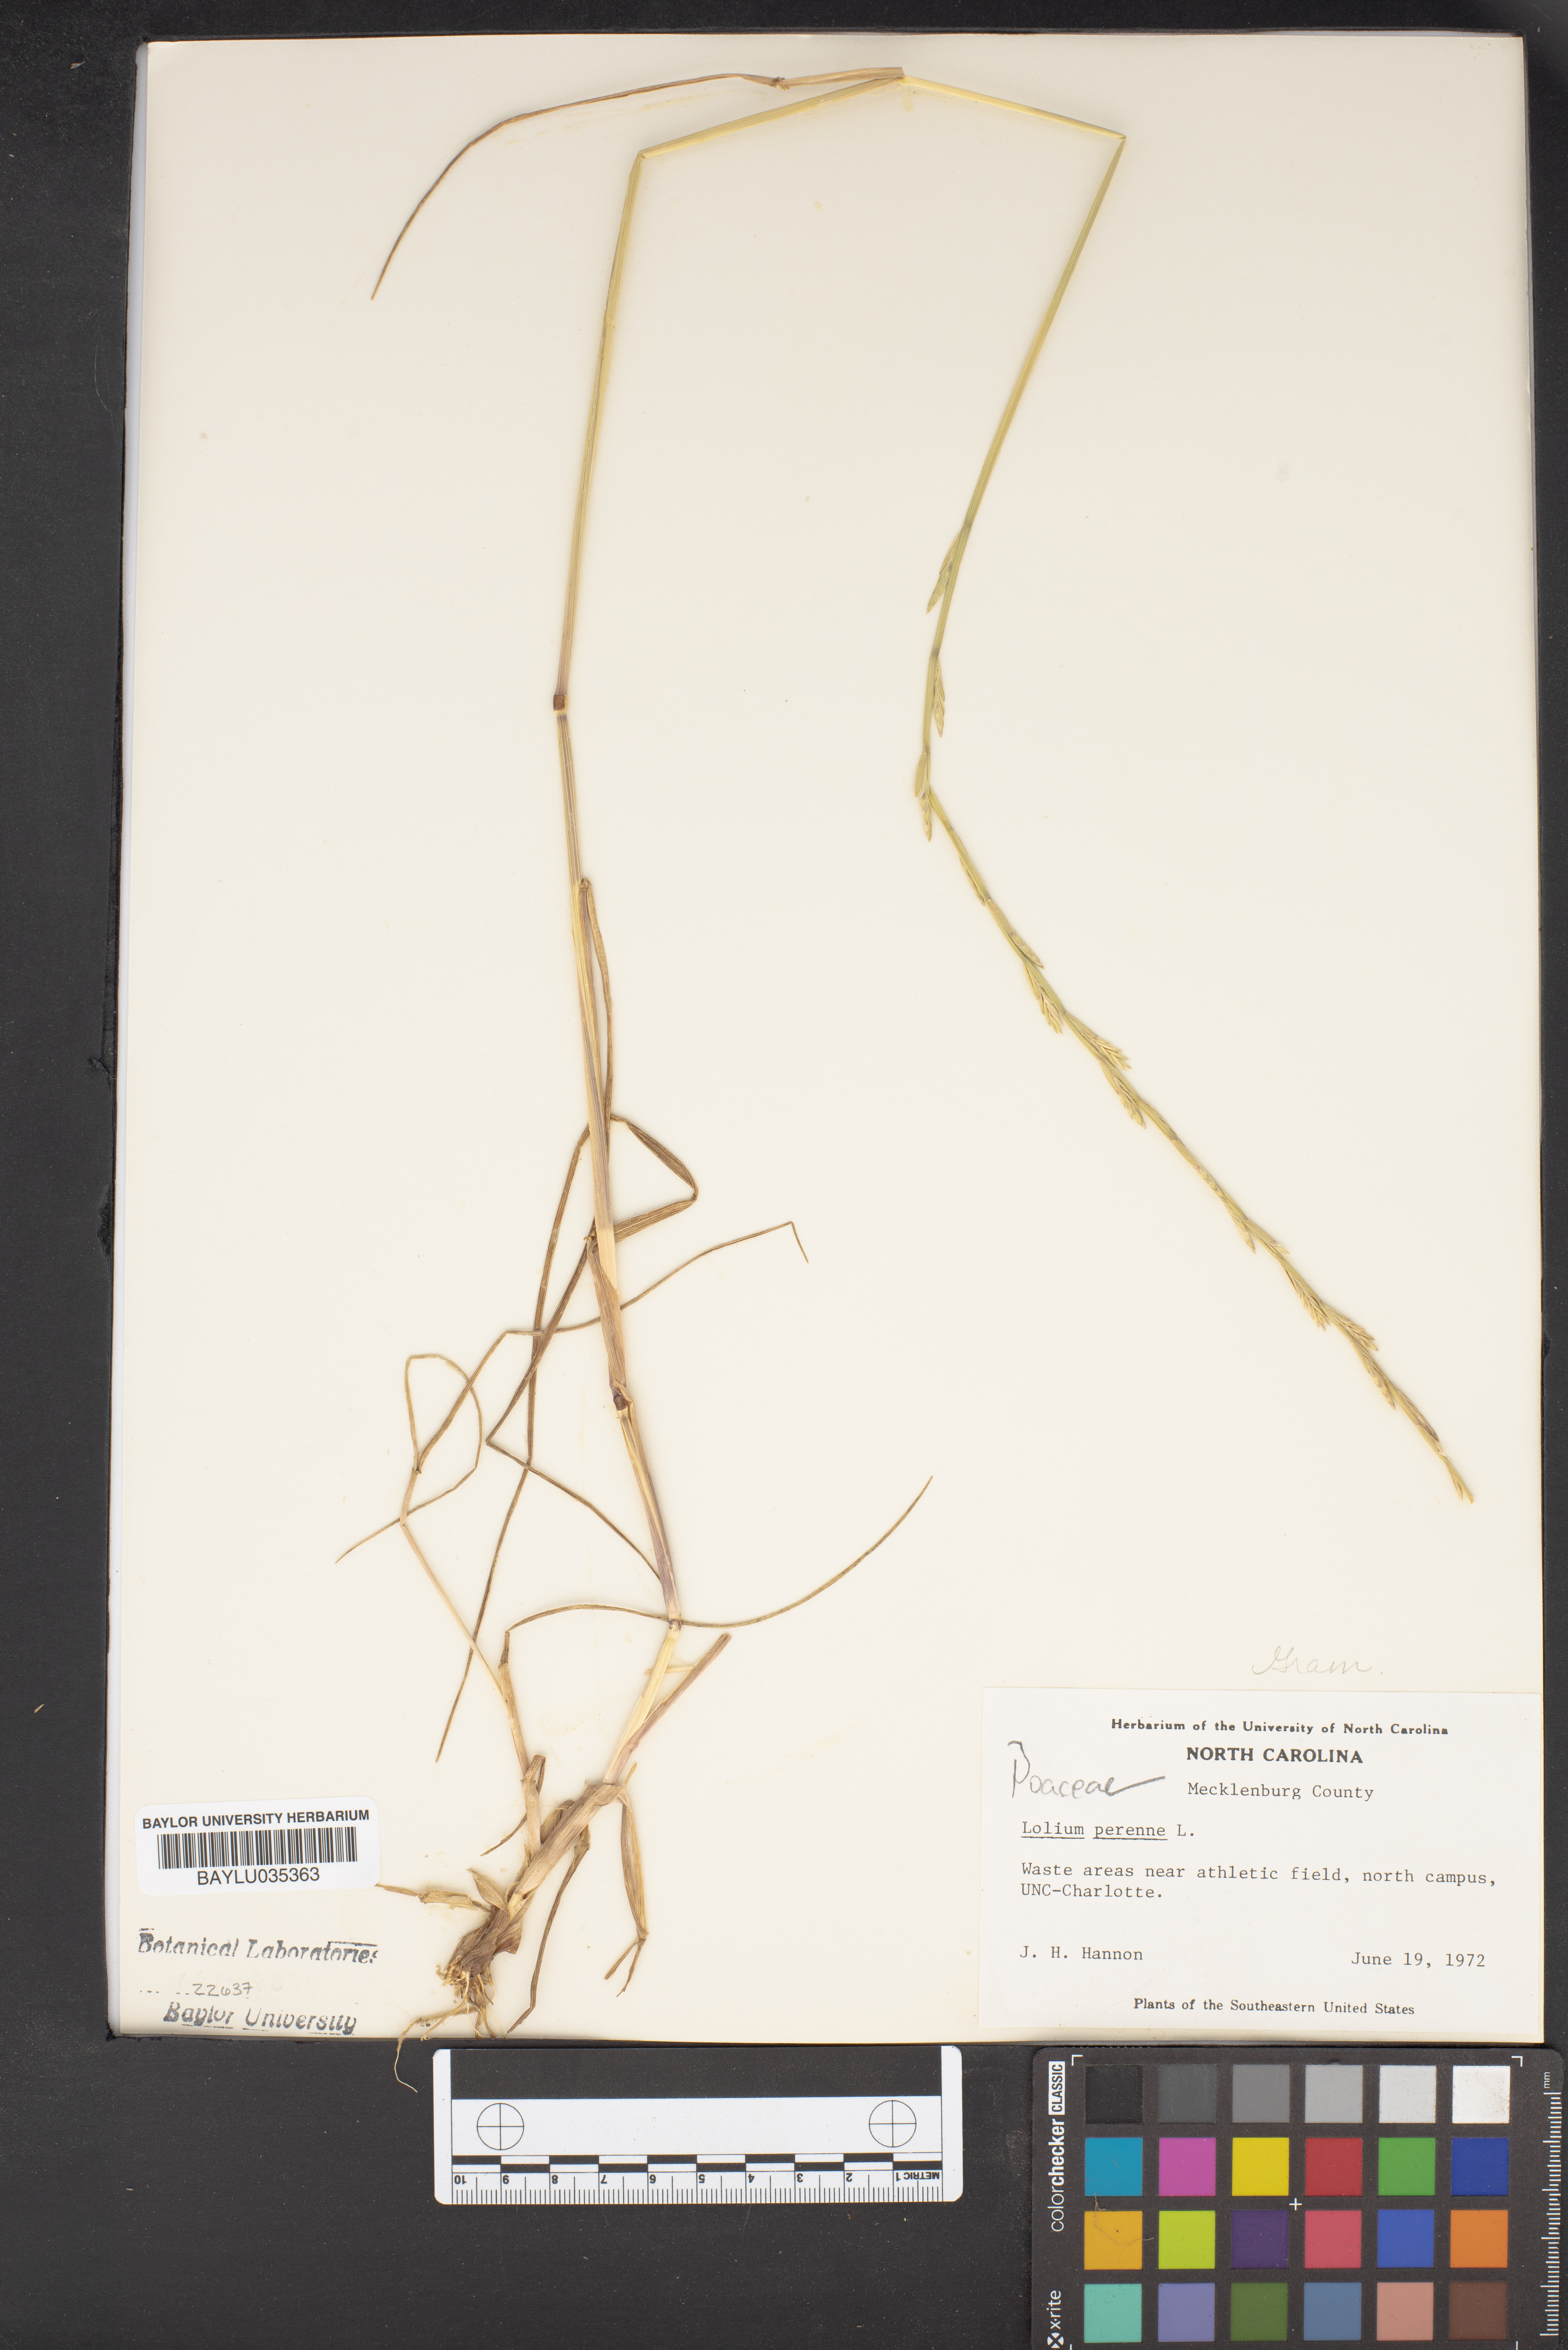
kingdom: Plantae
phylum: Tracheophyta
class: Liliopsida
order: Poales
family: Poaceae
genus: Lolium
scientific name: Lolium perenne
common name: Perennial ryegrass
